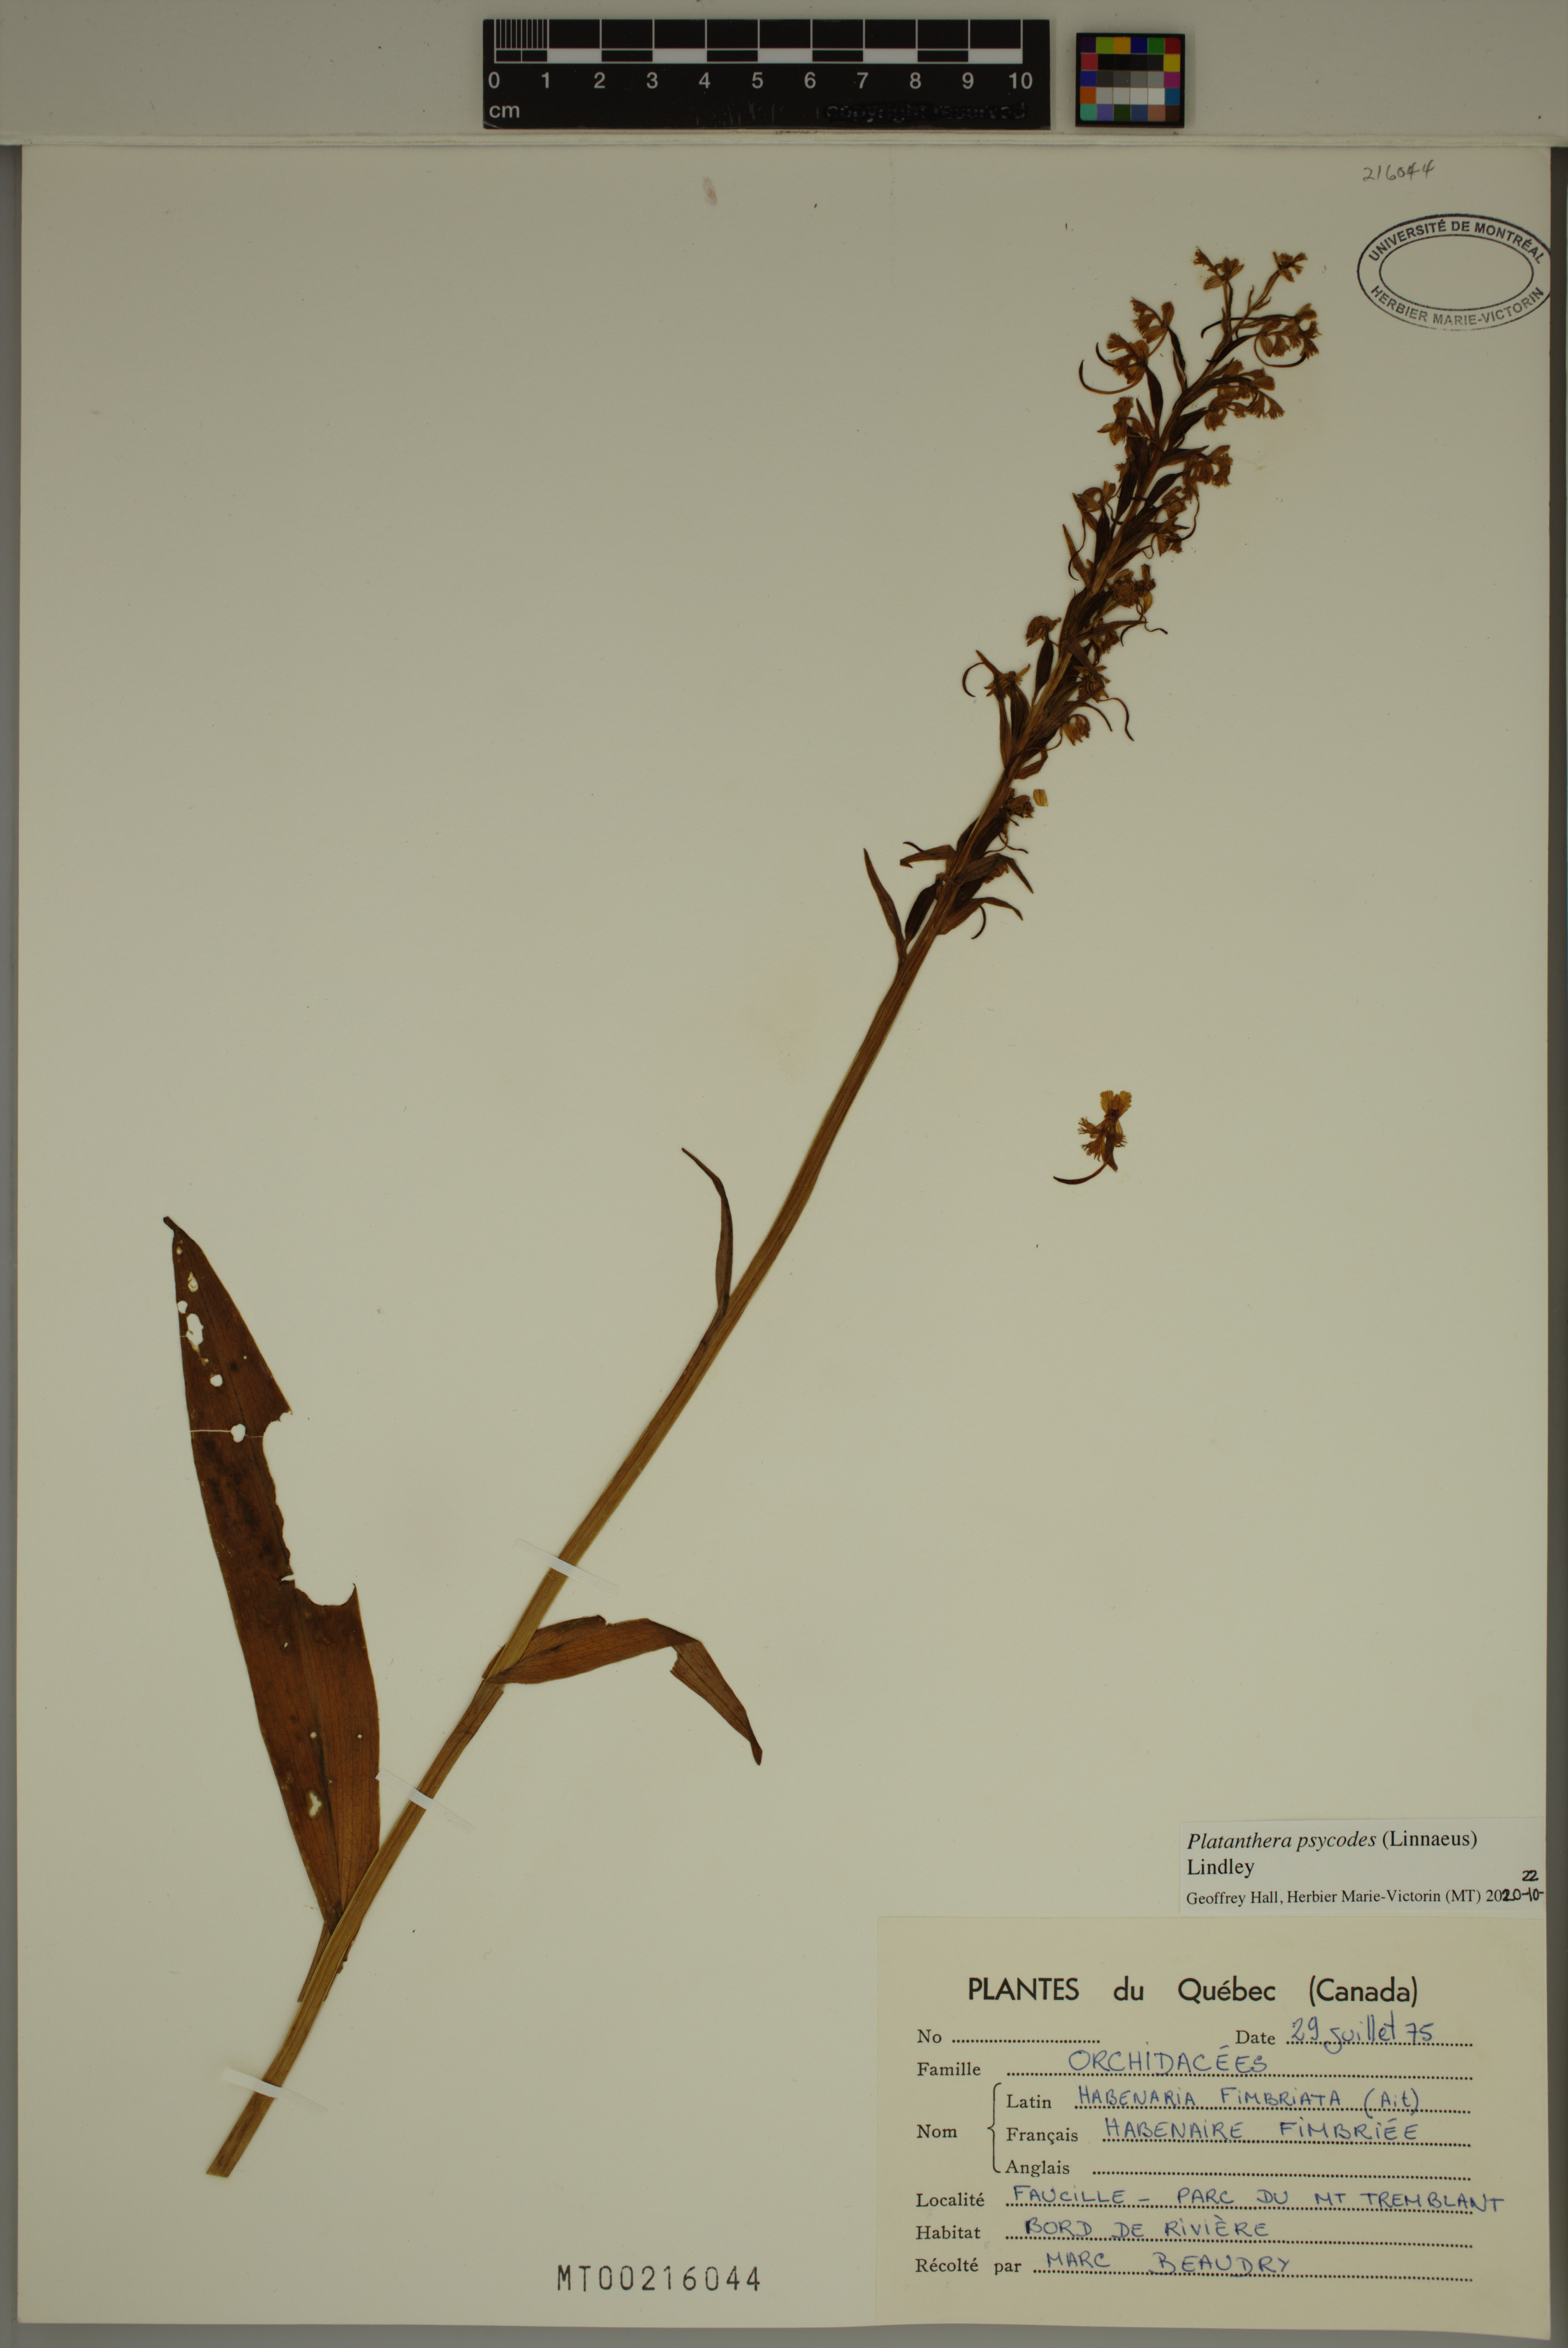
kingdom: Plantae
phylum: Tracheophyta
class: Liliopsida
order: Asparagales
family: Orchidaceae
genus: Platanthera
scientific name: Platanthera psycodes
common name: Lesser purple fringed orchid
